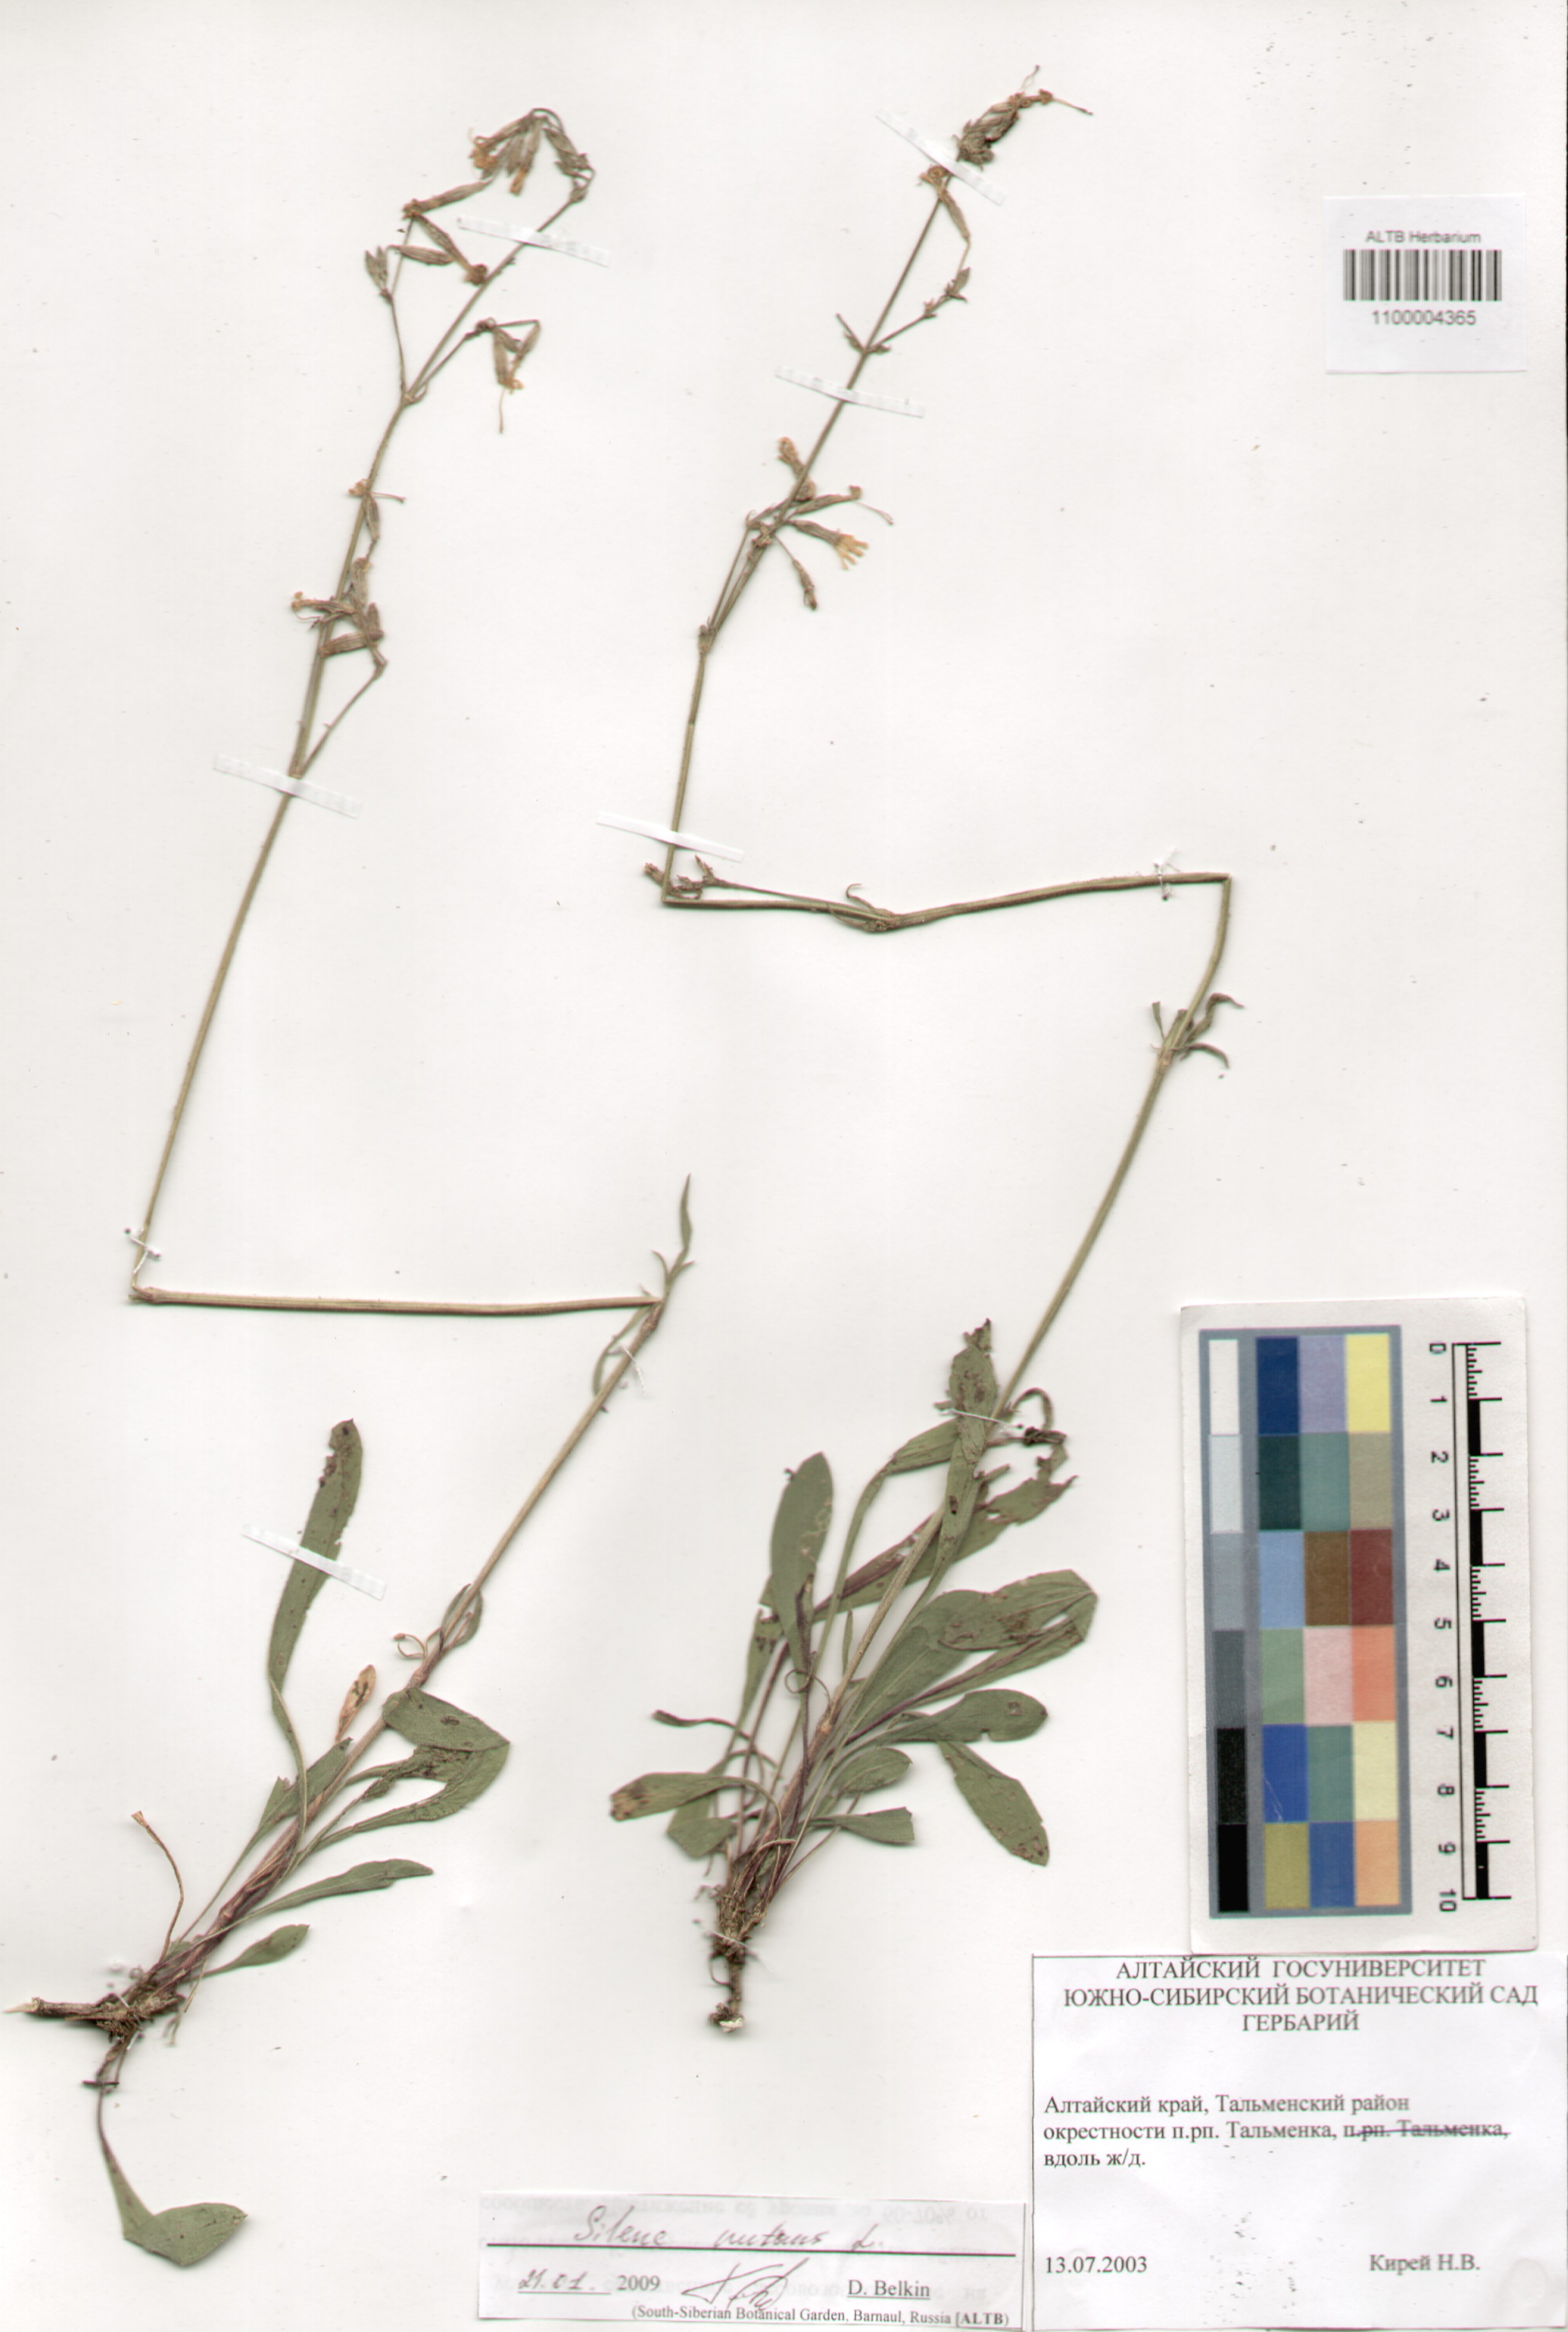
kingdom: Plantae
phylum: Tracheophyta
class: Magnoliopsida
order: Caryophyllales
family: Caryophyllaceae
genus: Silene
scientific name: Silene nutans
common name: Nottingham catchfly
